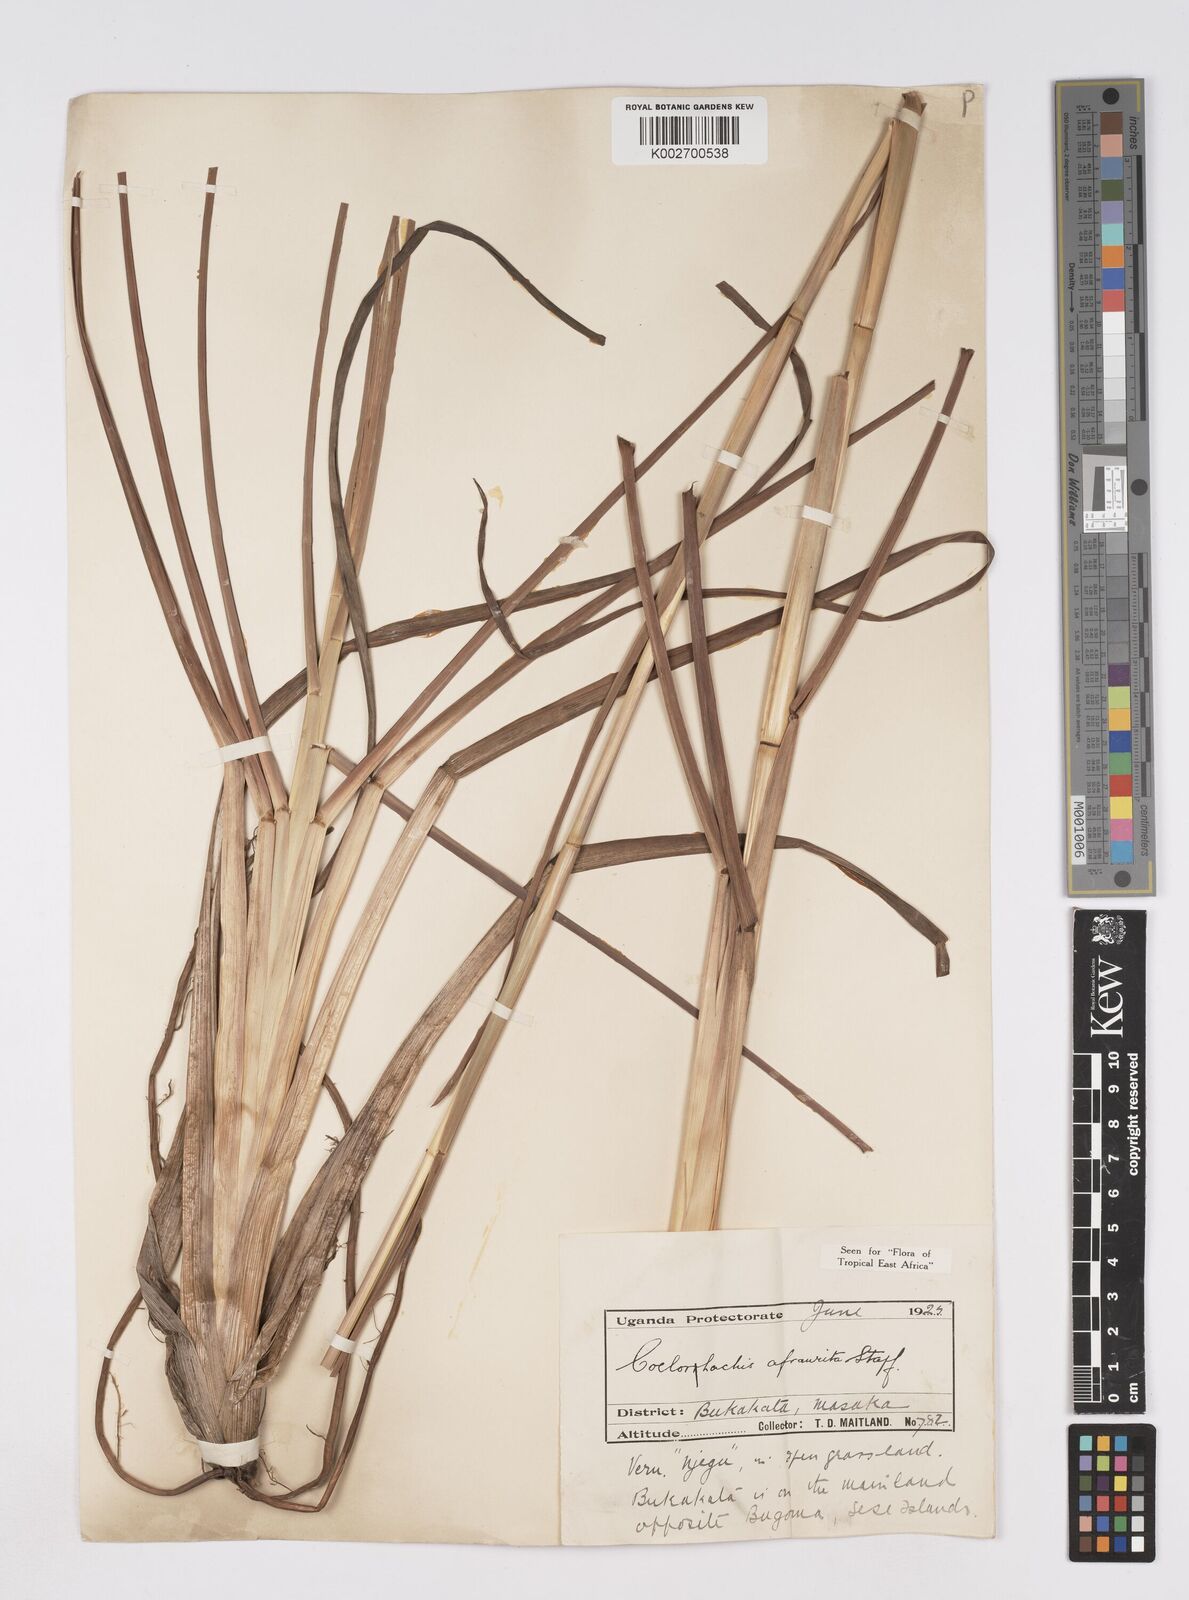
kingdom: Plantae
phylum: Tracheophyta
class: Liliopsida
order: Poales
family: Poaceae
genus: Rottboellia
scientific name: Rottboellia afraurita
